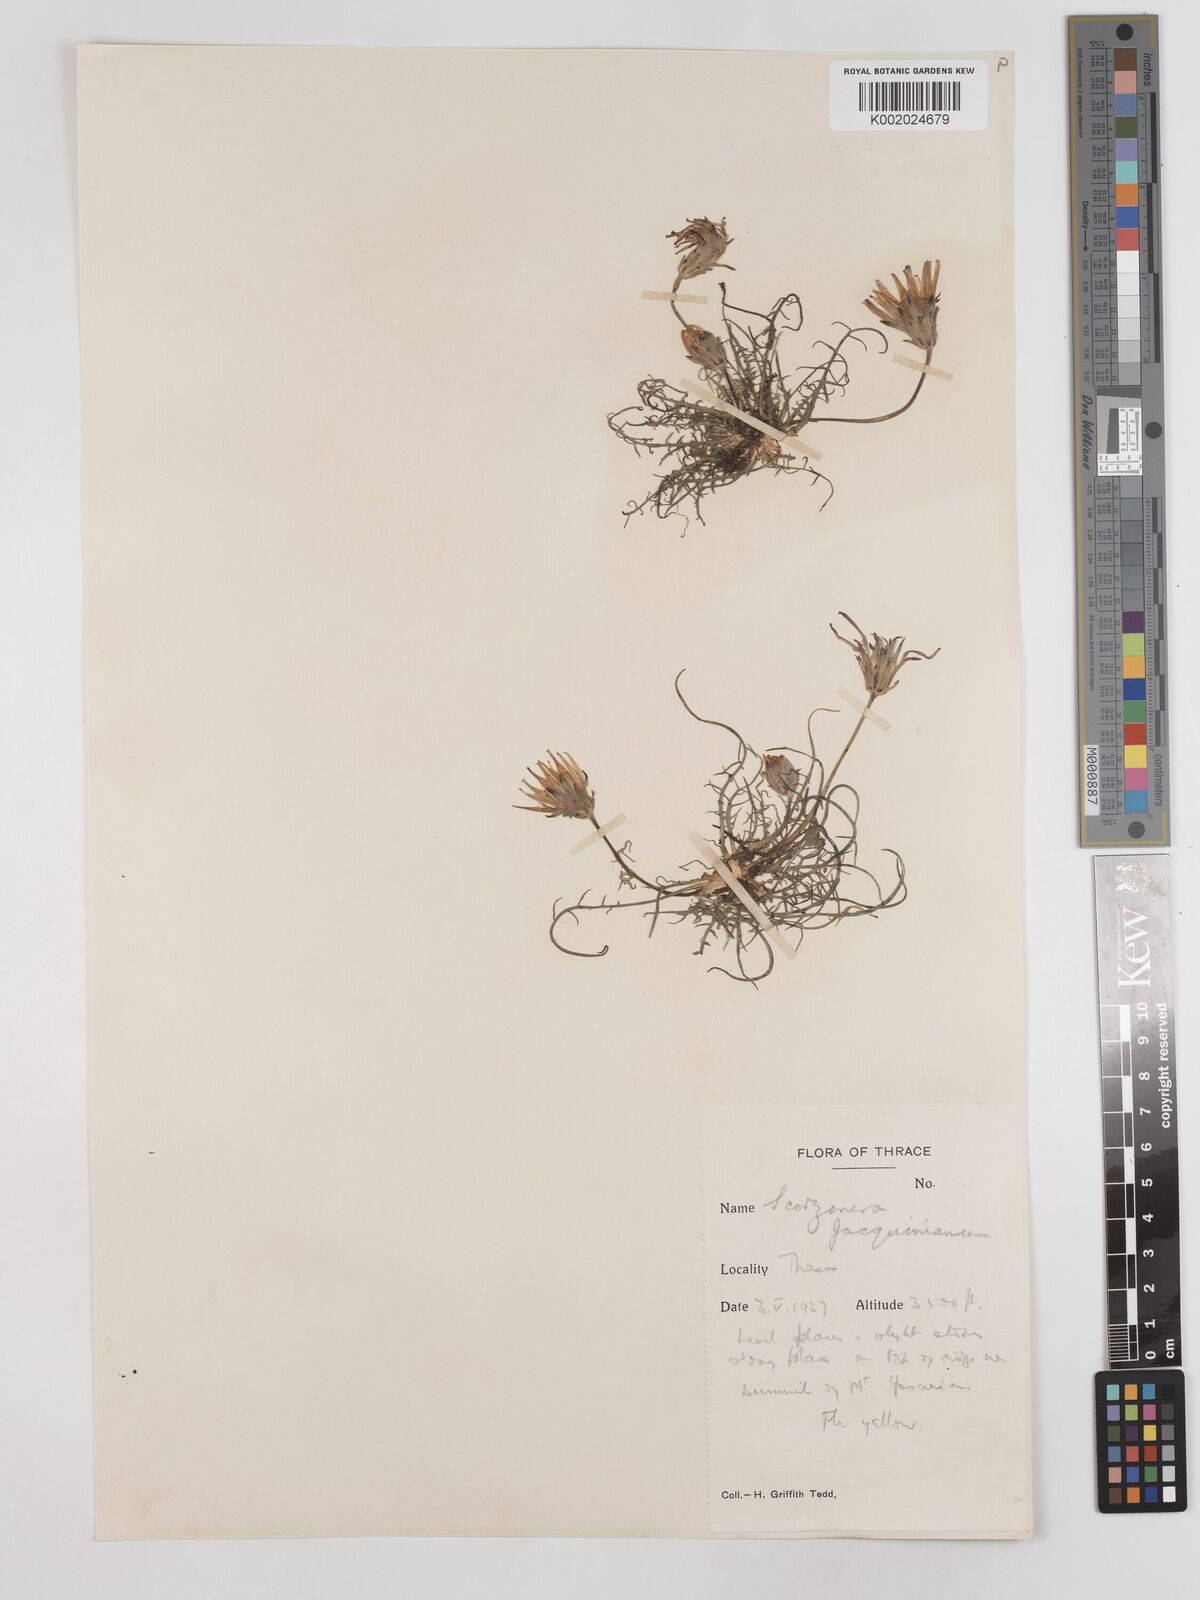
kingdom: Plantae
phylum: Tracheophyta
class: Magnoliopsida
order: Asterales
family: Asteraceae
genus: Scorzonera
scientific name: Scorzonera cana
